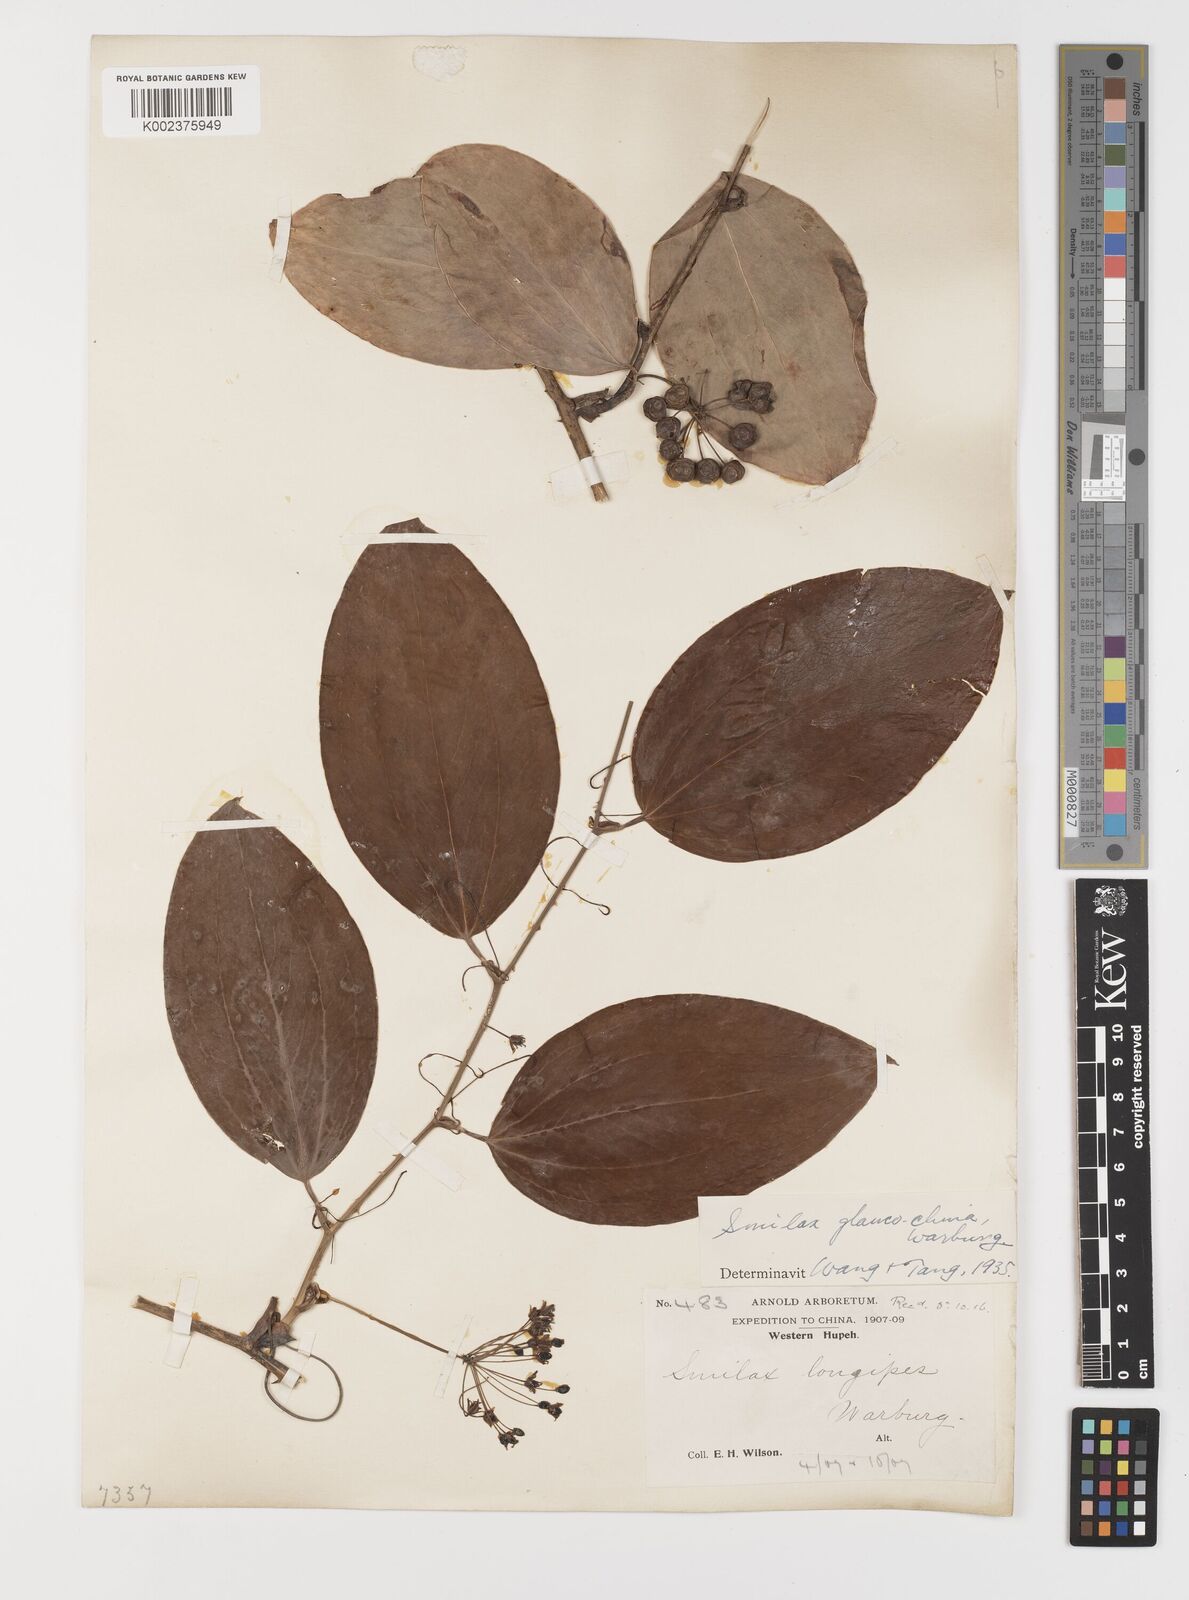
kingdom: Plantae
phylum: Tracheophyta
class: Liliopsida
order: Liliales
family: Smilacaceae
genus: Smilax
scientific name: Smilax glaucochina
